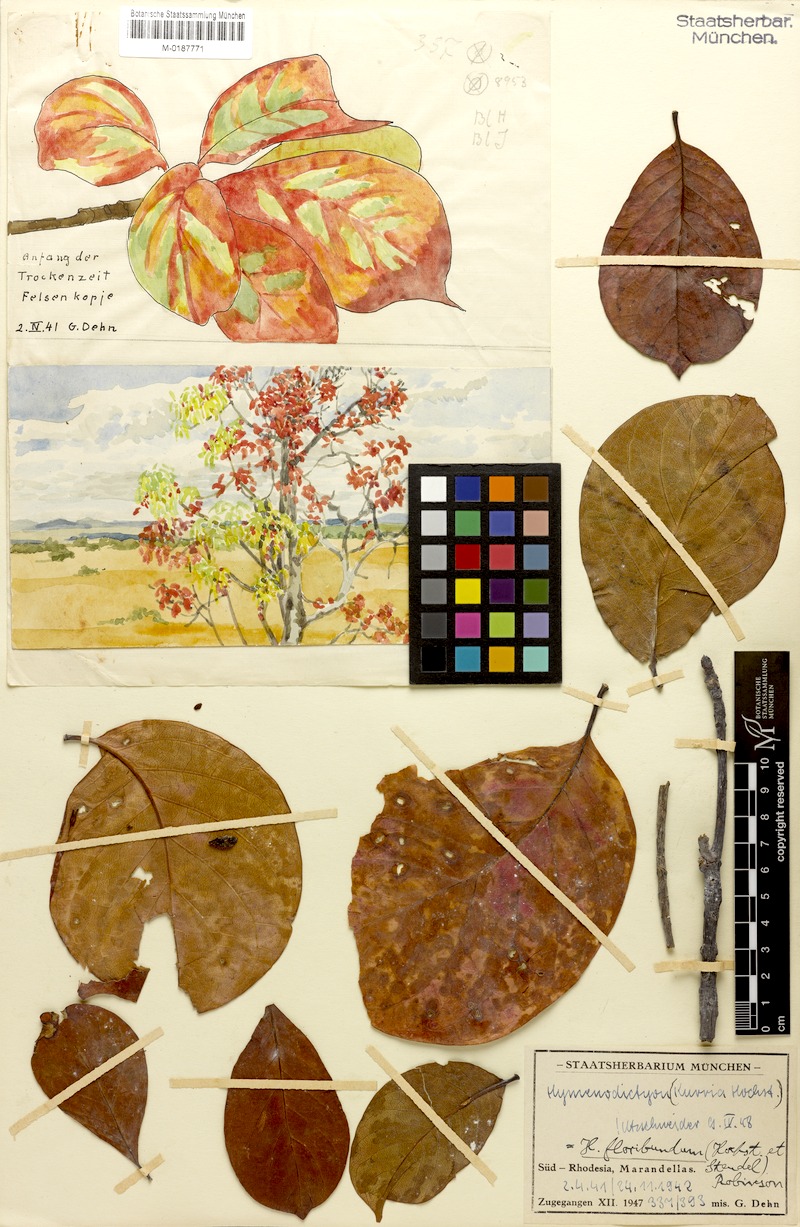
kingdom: Plantae
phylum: Tracheophyta
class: Magnoliopsida
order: Gentianales
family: Rubiaceae
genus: Hymenodictyon
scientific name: Hymenodictyon floribundum
